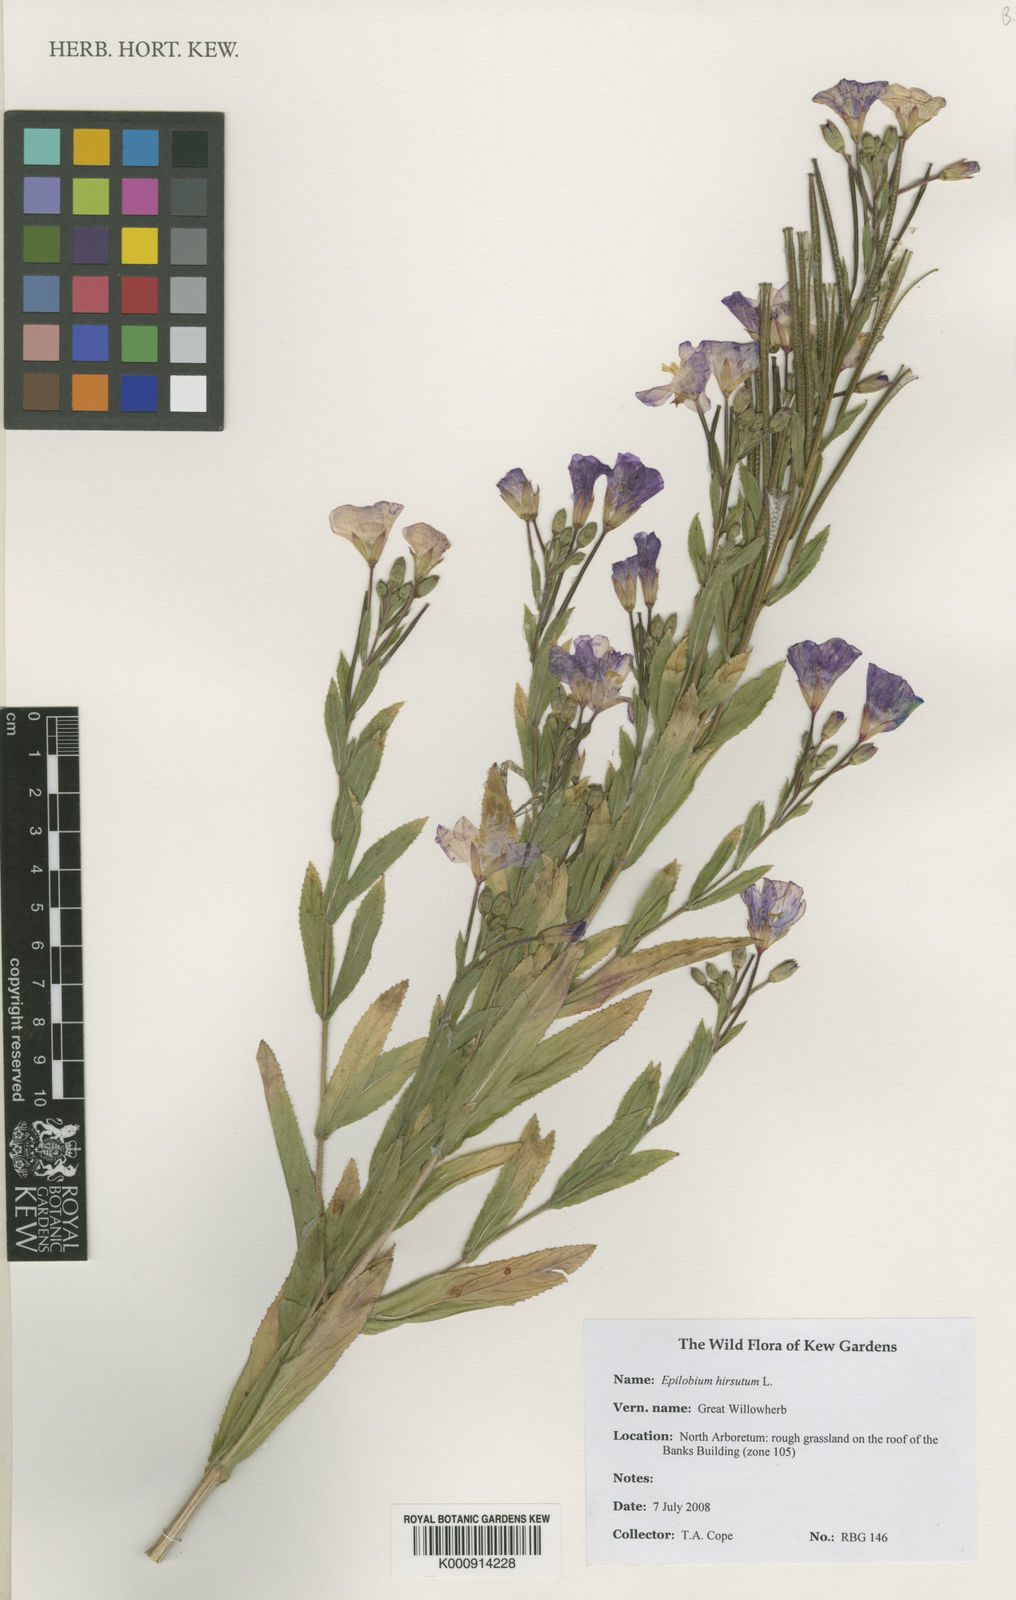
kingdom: Plantae
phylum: Tracheophyta
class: Magnoliopsida
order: Myrtales
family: Onagraceae
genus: Epilobium
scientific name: Epilobium hirsutum
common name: Great willowherb
